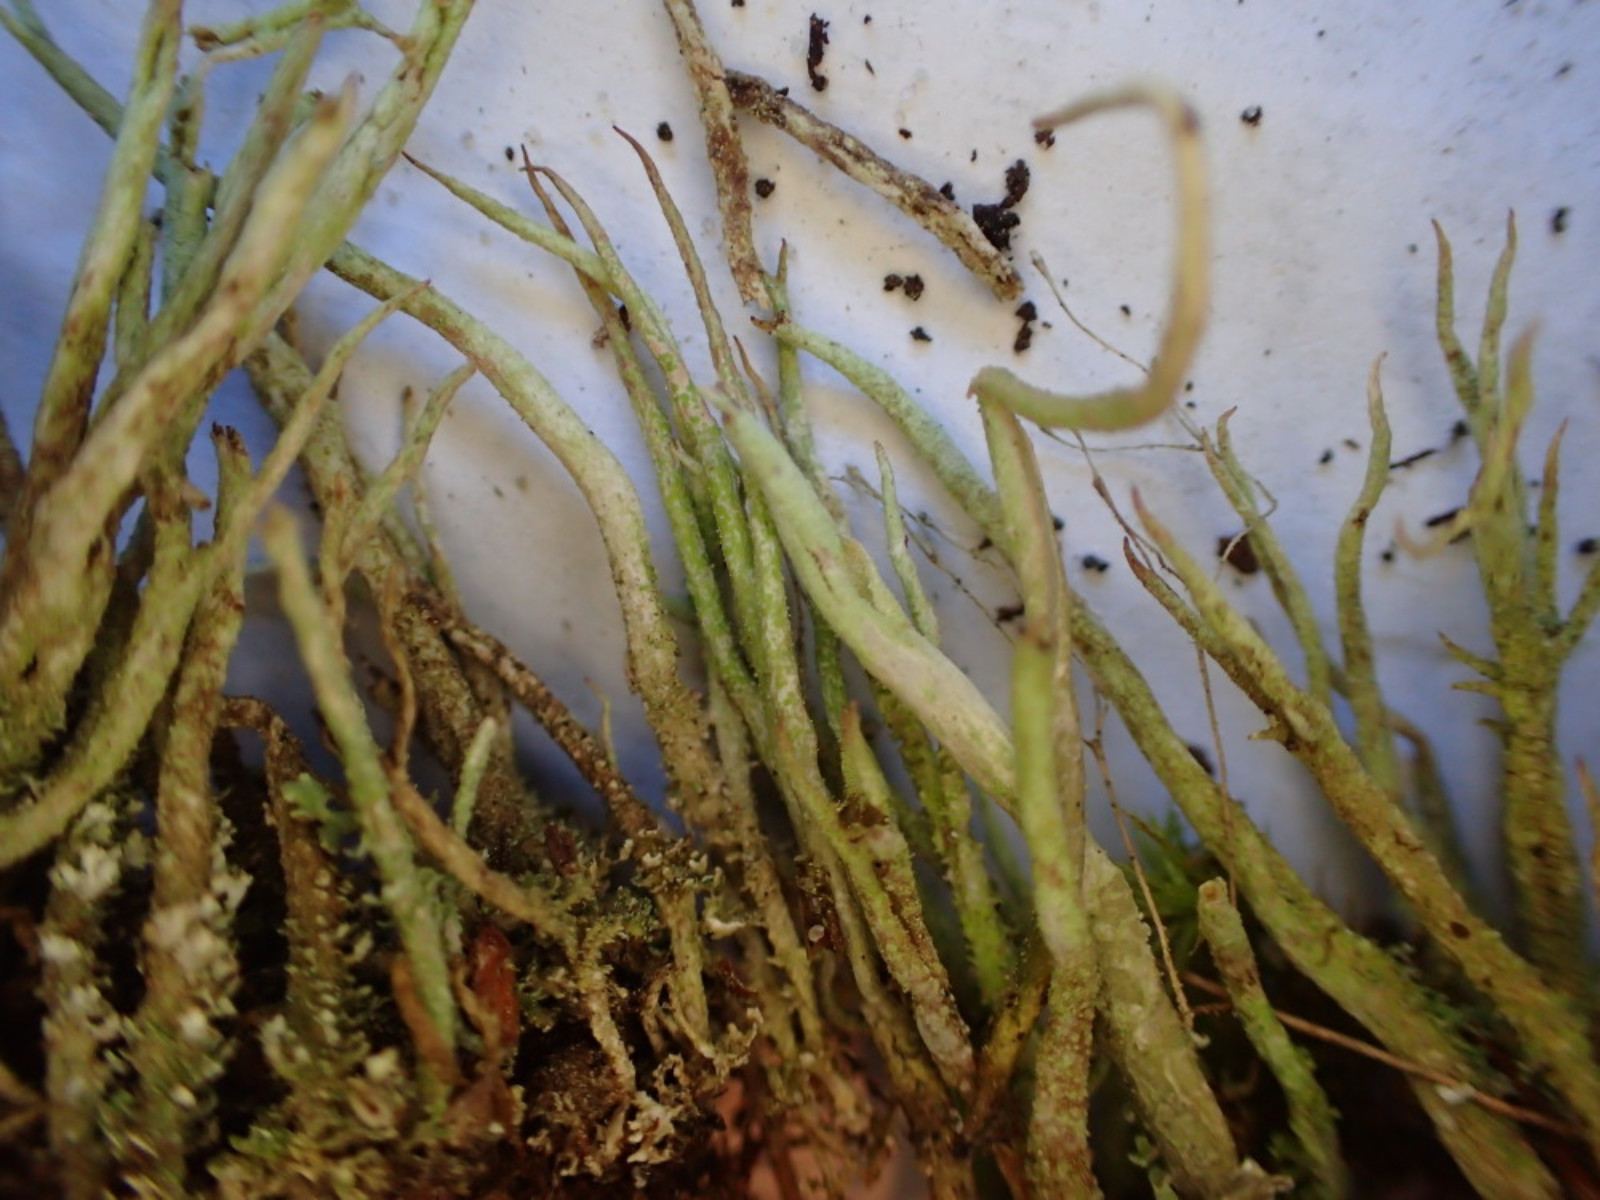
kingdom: Fungi
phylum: Ascomycota
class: Lecanoromycetes
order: Lecanorales
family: Cladoniaceae
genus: Cladonia
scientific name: Cladonia glauca
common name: grågrøn bægerlav
